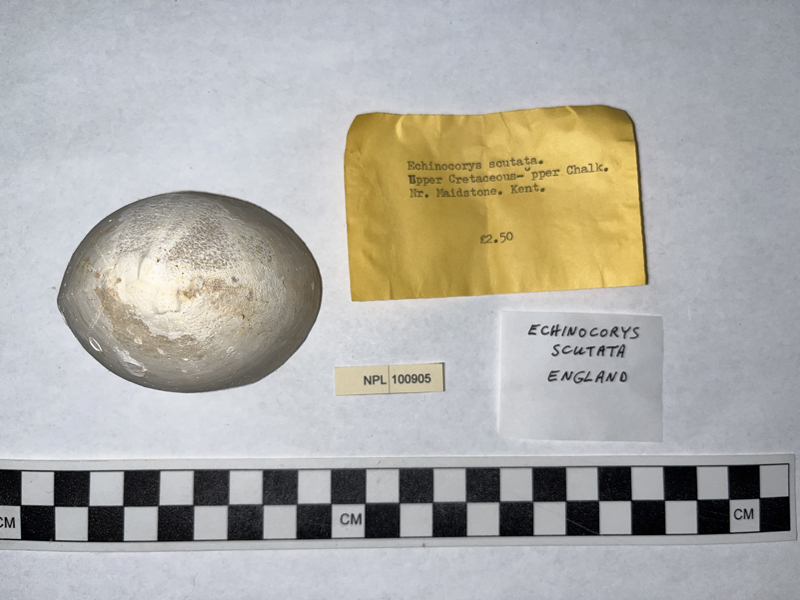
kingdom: Animalia
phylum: Echinodermata
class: Echinoidea
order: Holasteroida
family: Echinocorythidae
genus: Echinocorys
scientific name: Echinocorys scutatus
